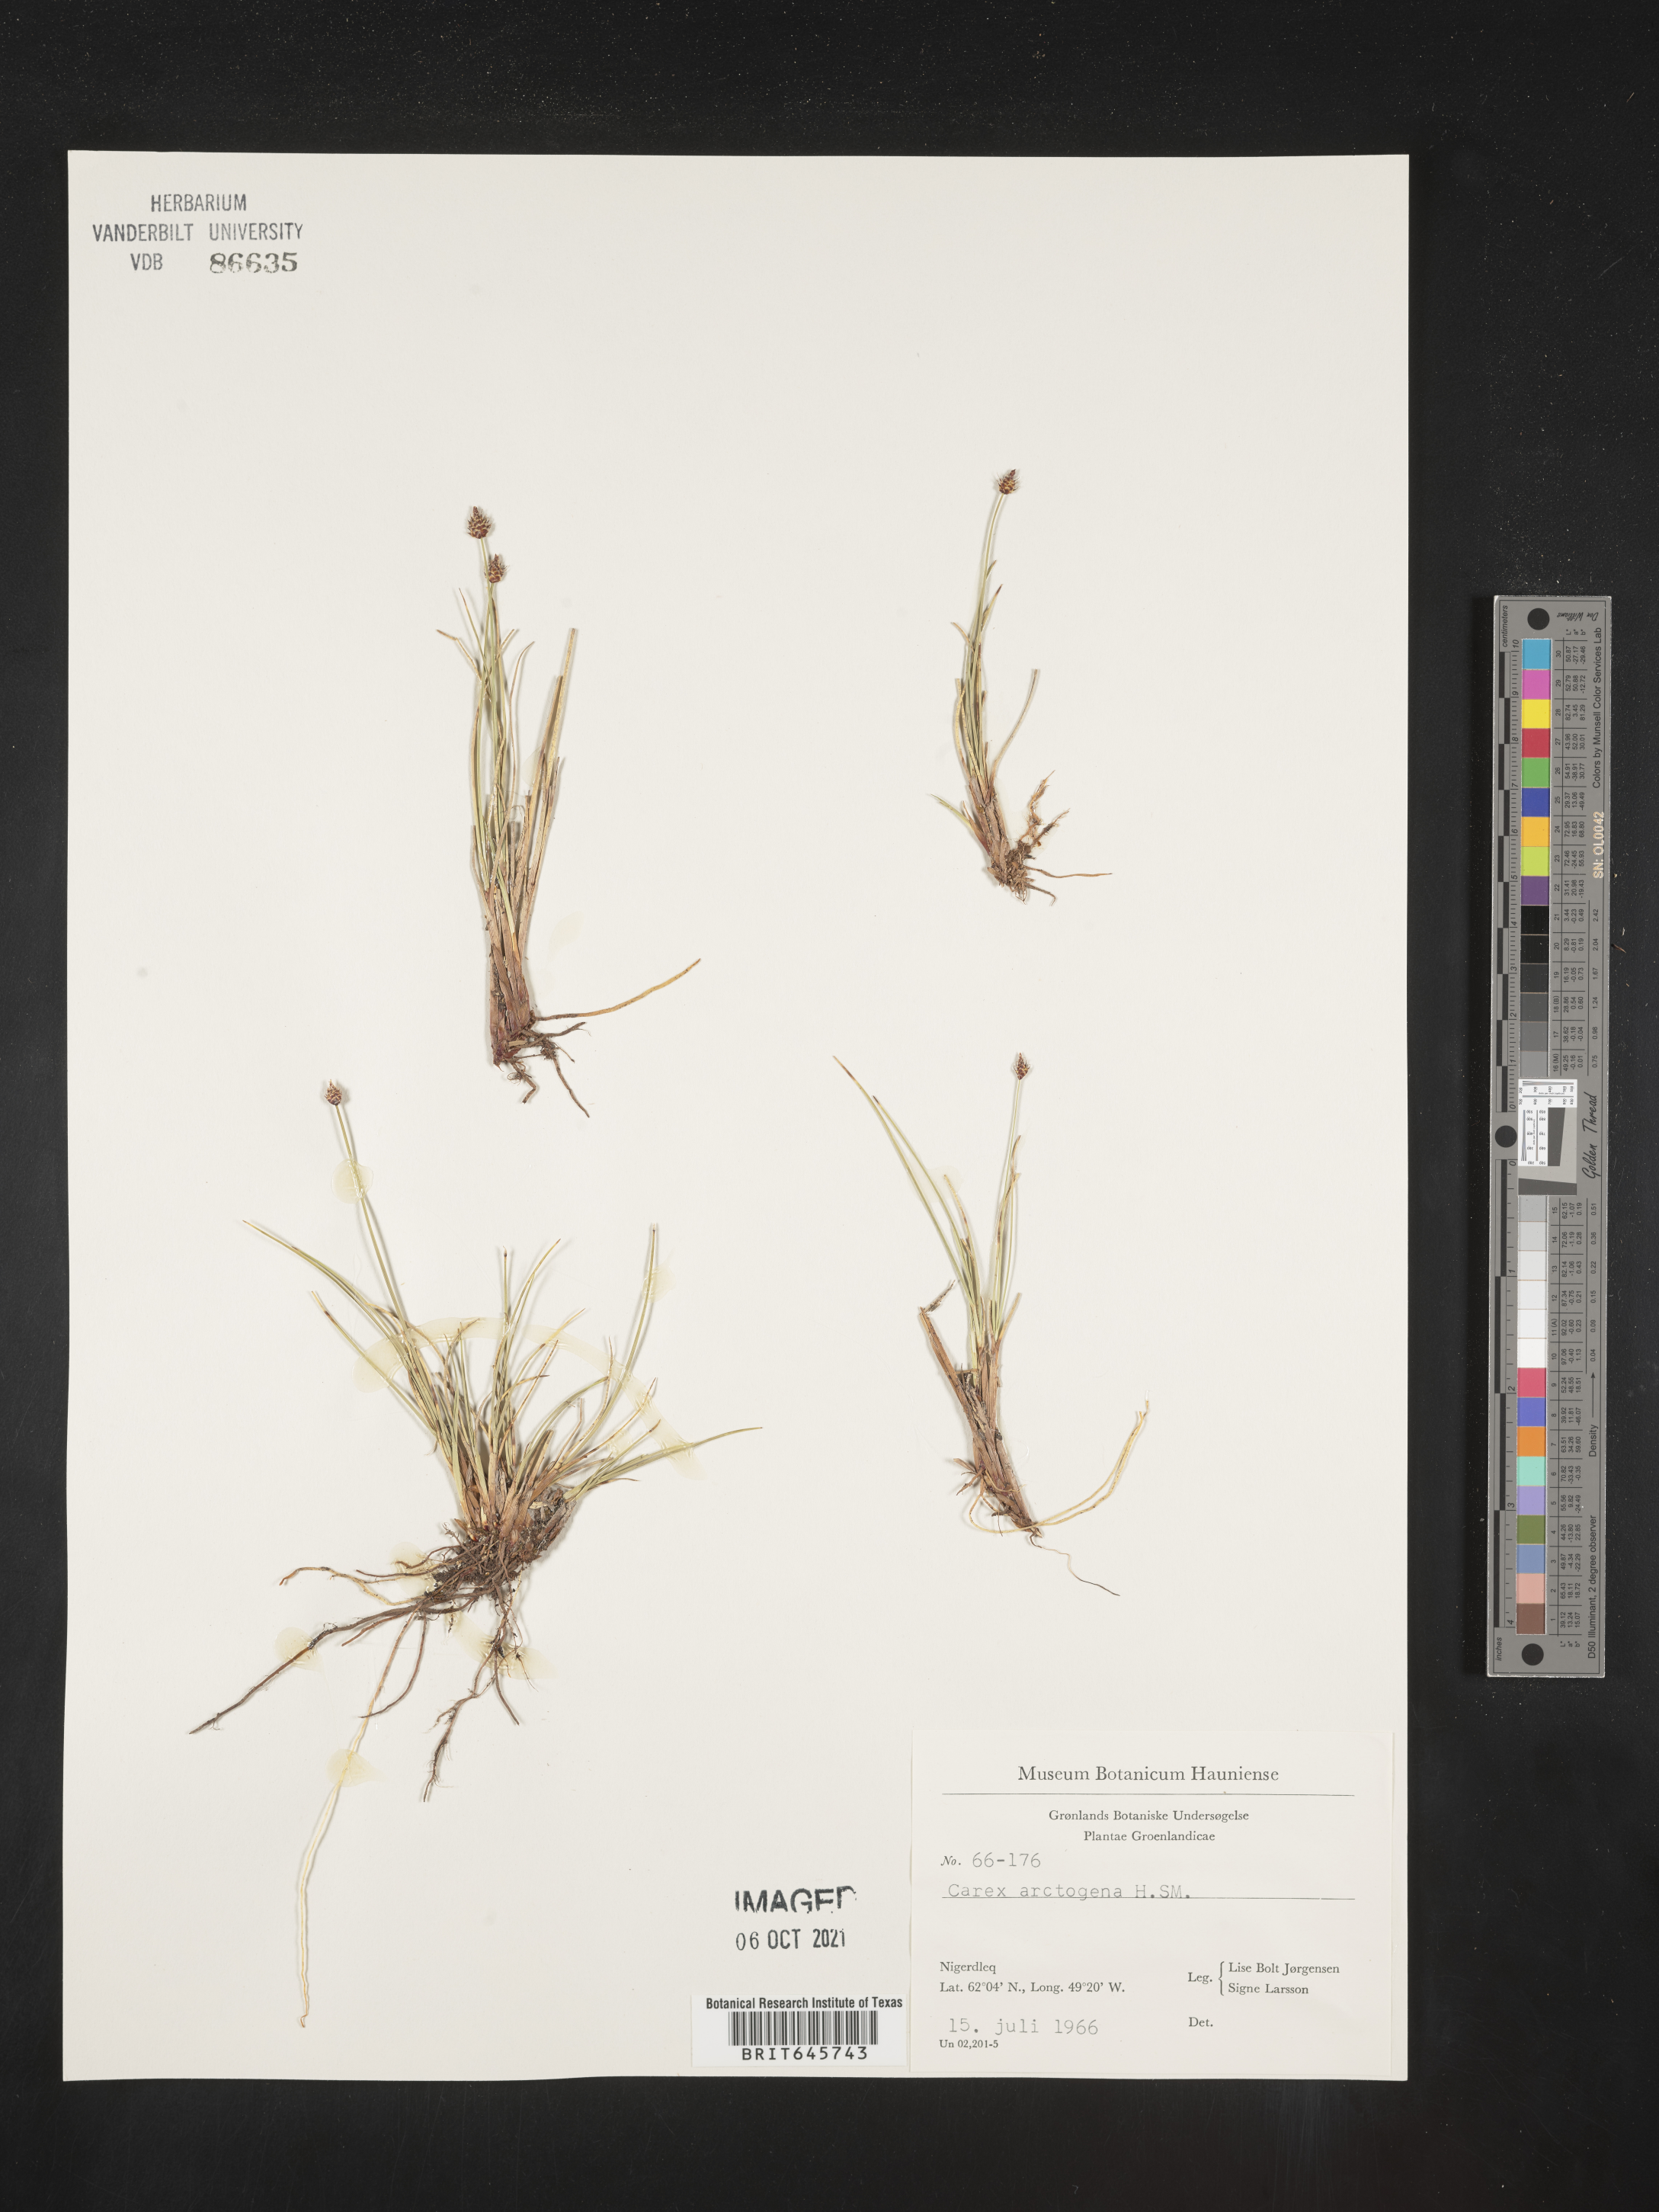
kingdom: Plantae
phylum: Tracheophyta
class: Liliopsida
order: Poales
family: Cyperaceae
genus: Carex
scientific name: Carex arctogena
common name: Black sedge
